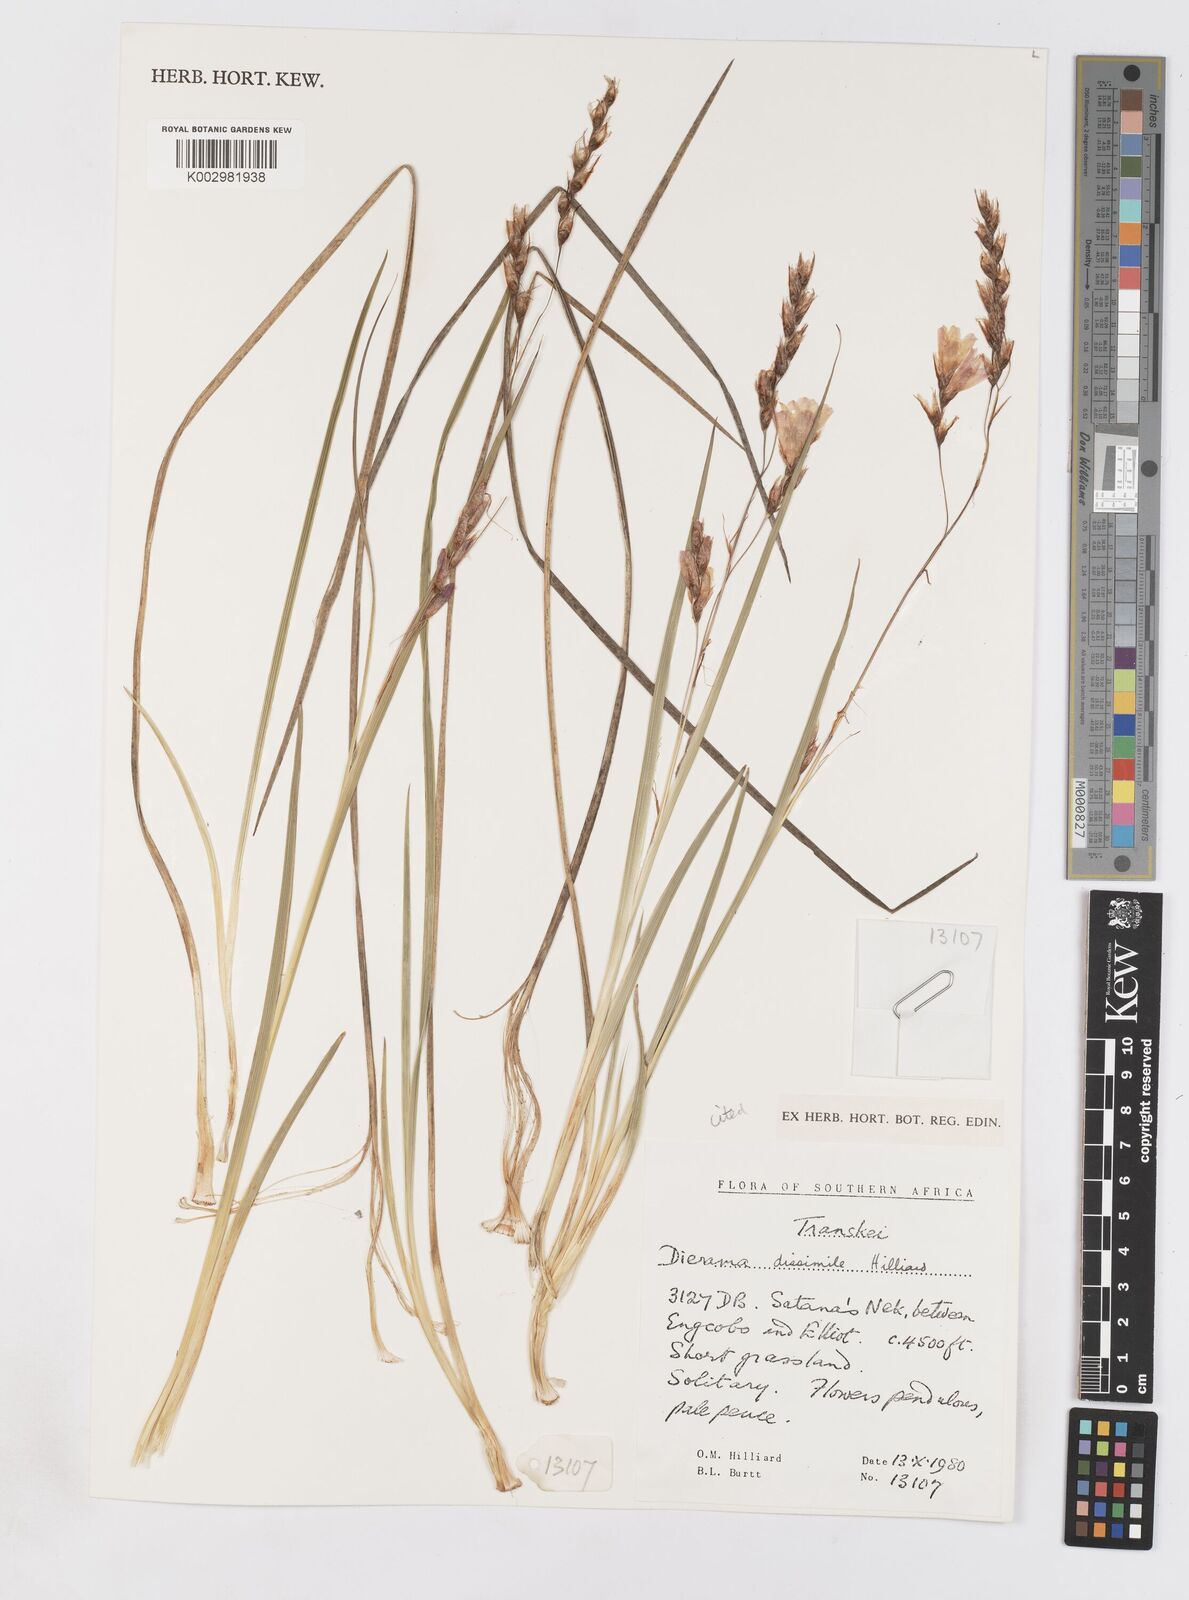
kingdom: Plantae
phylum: Tracheophyta
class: Liliopsida
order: Asparagales
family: Iridaceae
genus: Dierama
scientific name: Dierama dissimile
